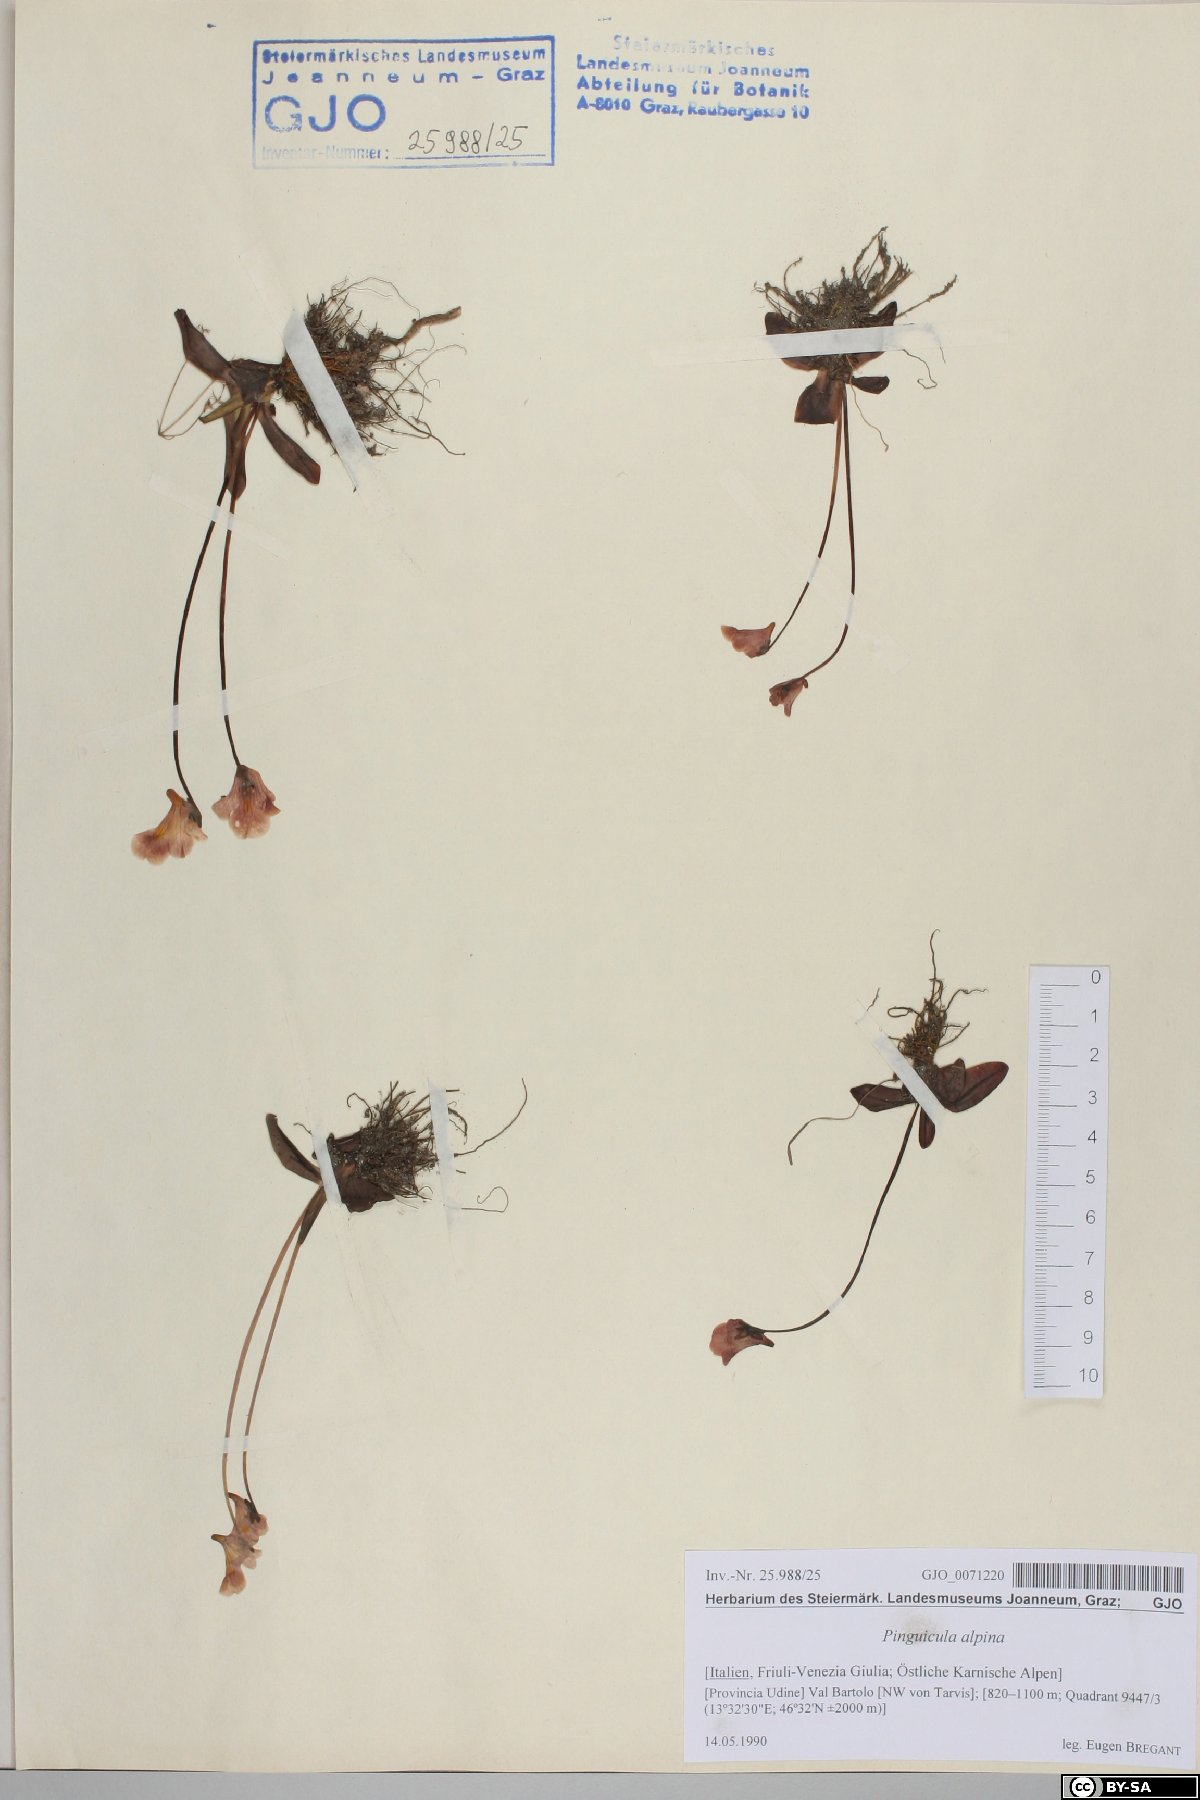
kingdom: Plantae
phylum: Tracheophyta
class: Magnoliopsida
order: Lamiales
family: Lentibulariaceae
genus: Pinguicula
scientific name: Pinguicula alpina
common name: Alpine butterwort
